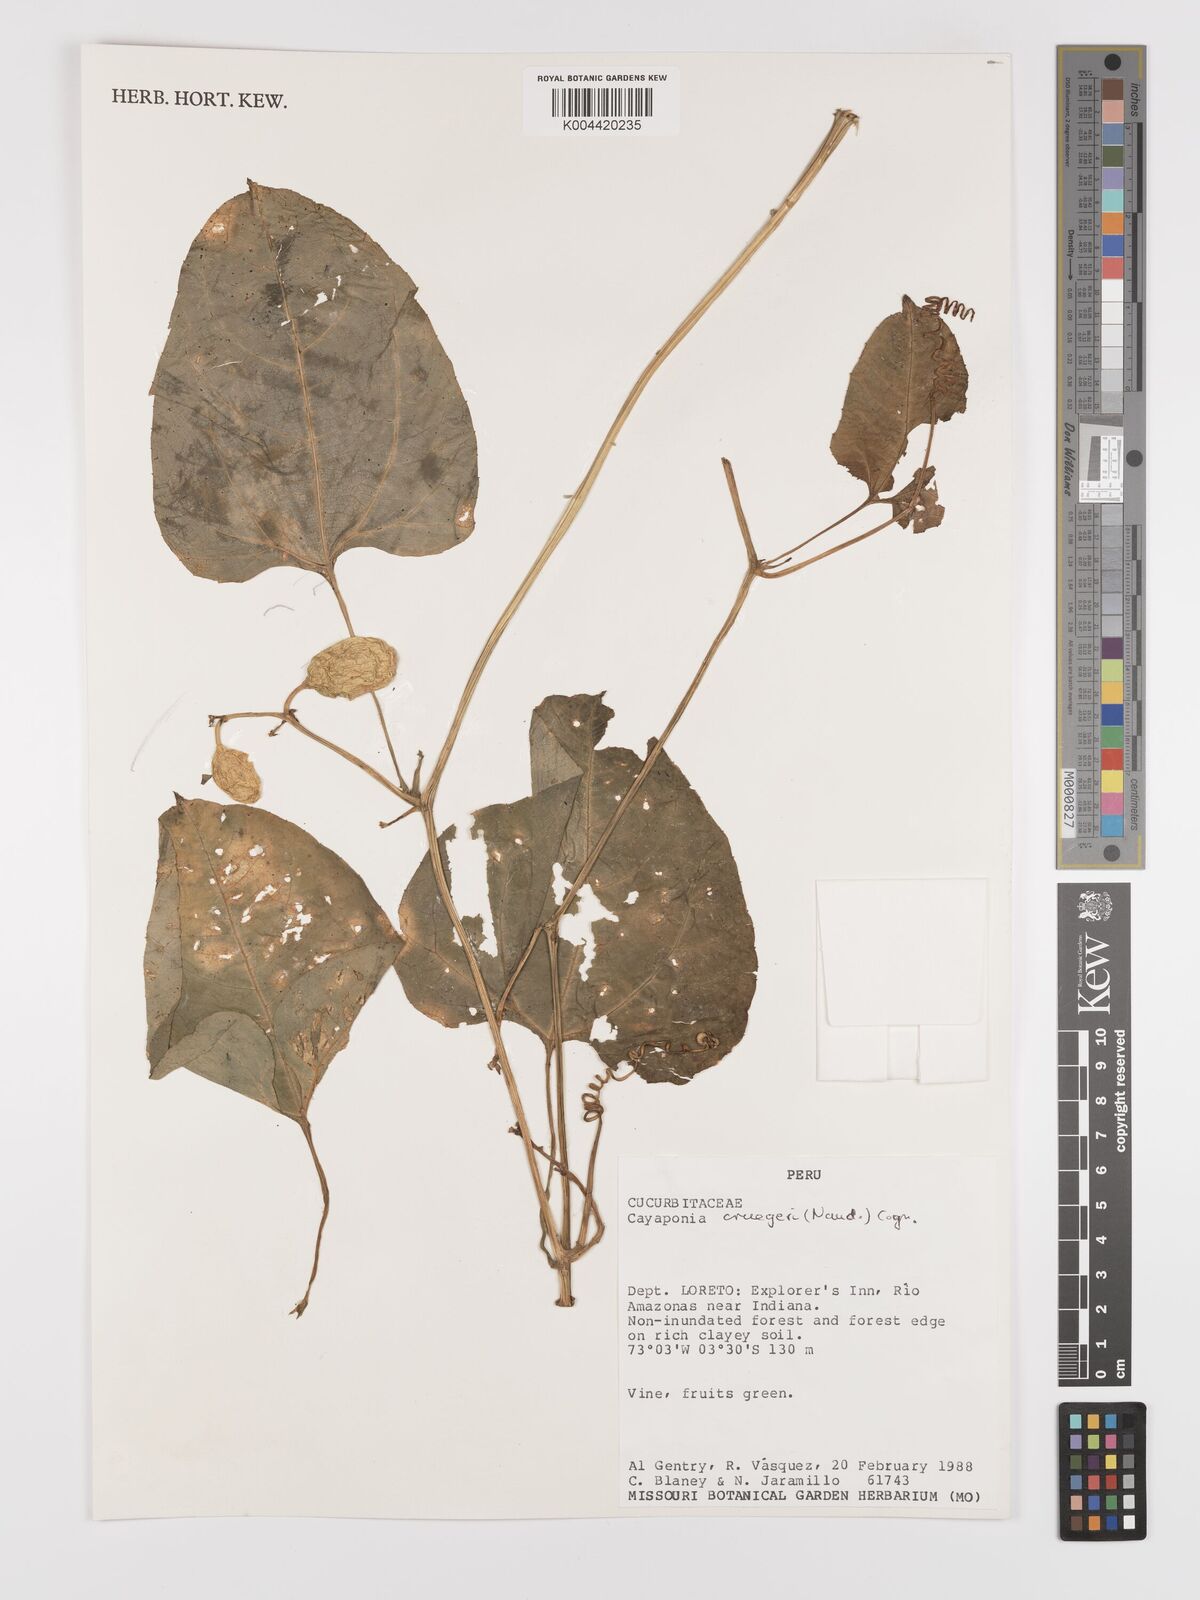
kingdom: Plantae
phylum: Tracheophyta
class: Magnoliopsida
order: Cucurbitales
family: Cucurbitaceae
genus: Cayaponia
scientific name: Cayaponia cruegeri
